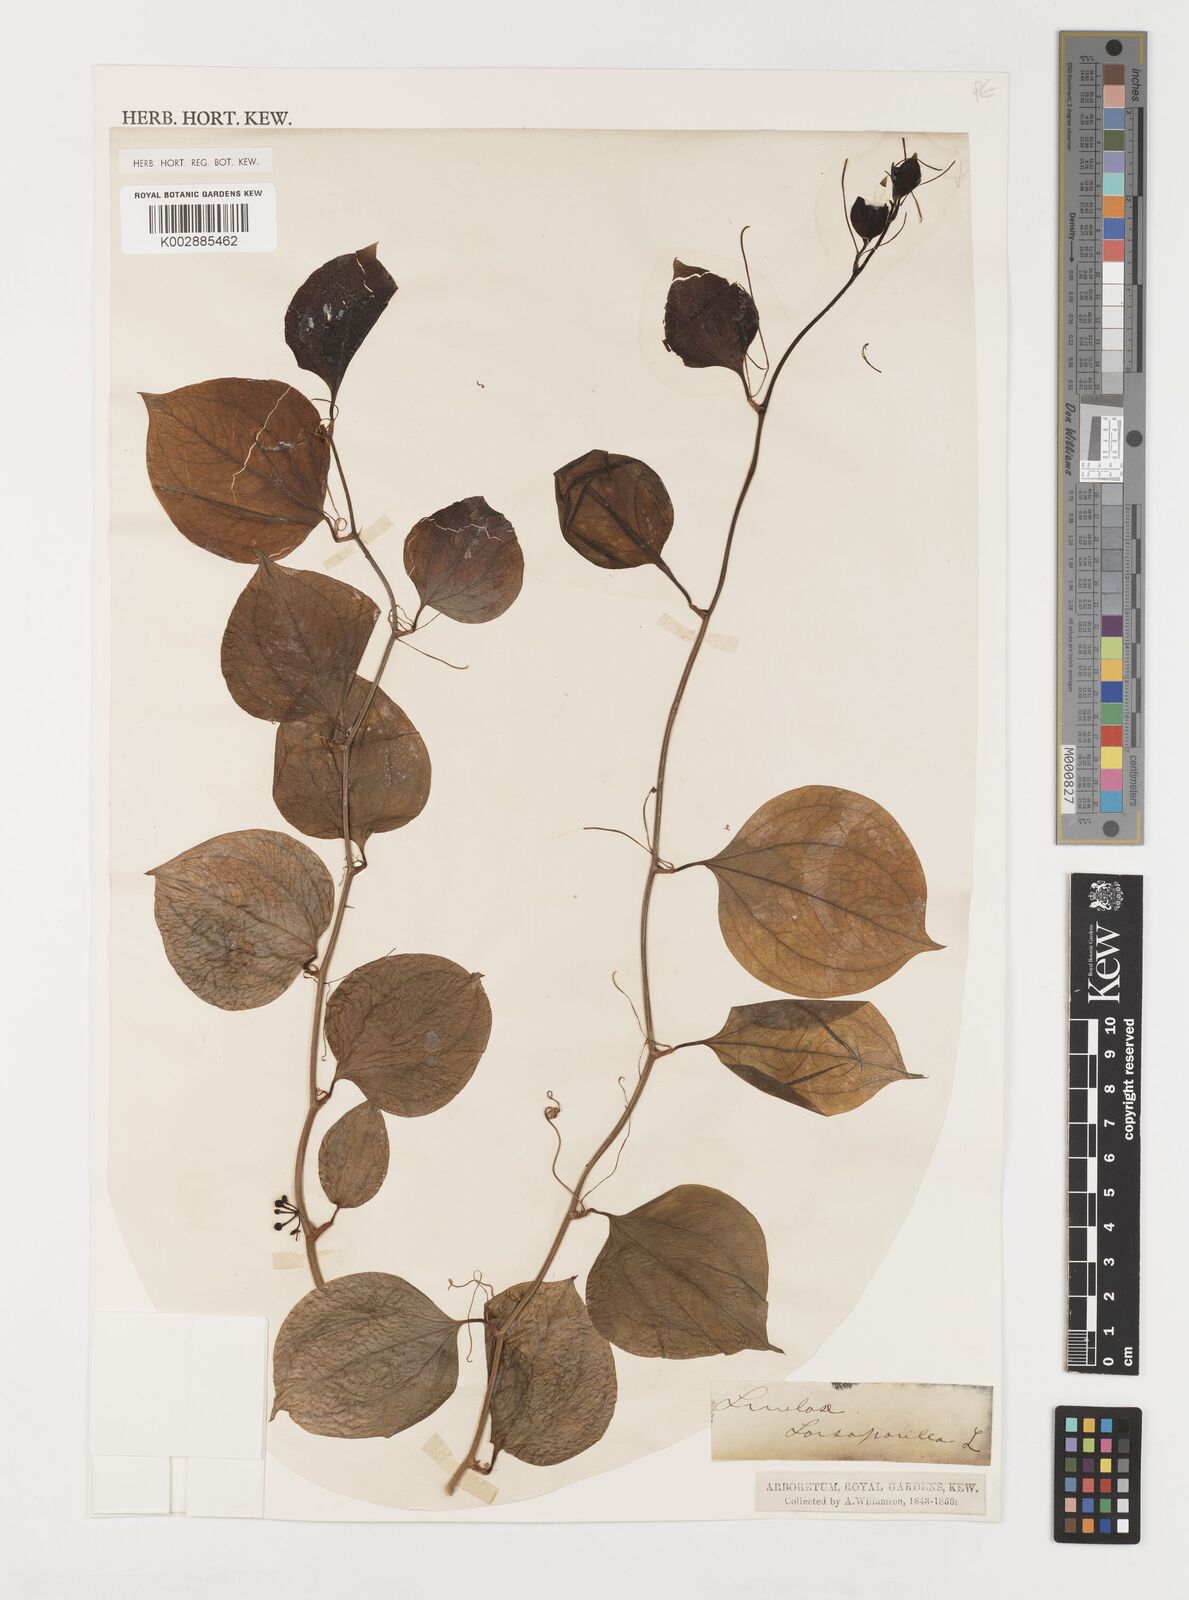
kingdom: Plantae
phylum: Tracheophyta
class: Liliopsida
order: Liliales
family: Smilacaceae
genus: Smilax
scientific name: Smilax glauca
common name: Cat greenbrier
